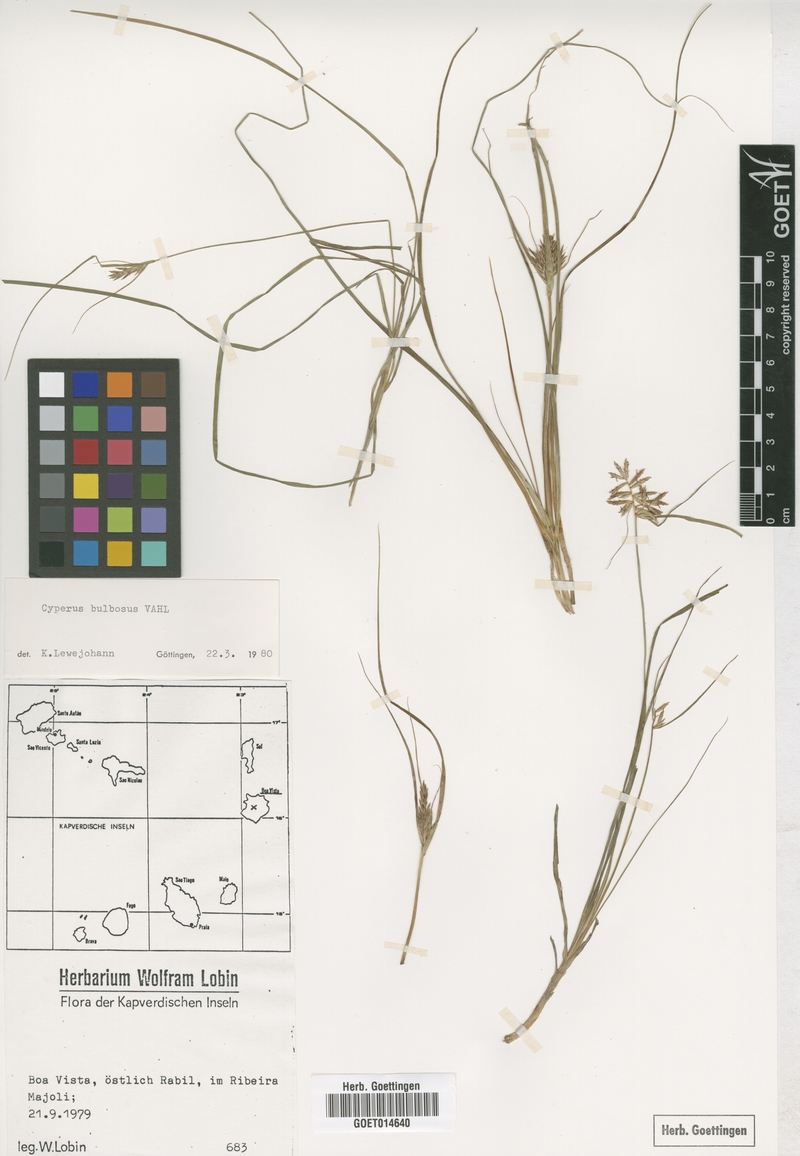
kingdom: Plantae
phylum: Tracheophyta
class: Liliopsida
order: Poales
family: Cyperaceae
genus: Cyperus
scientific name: Cyperus bulbosus
